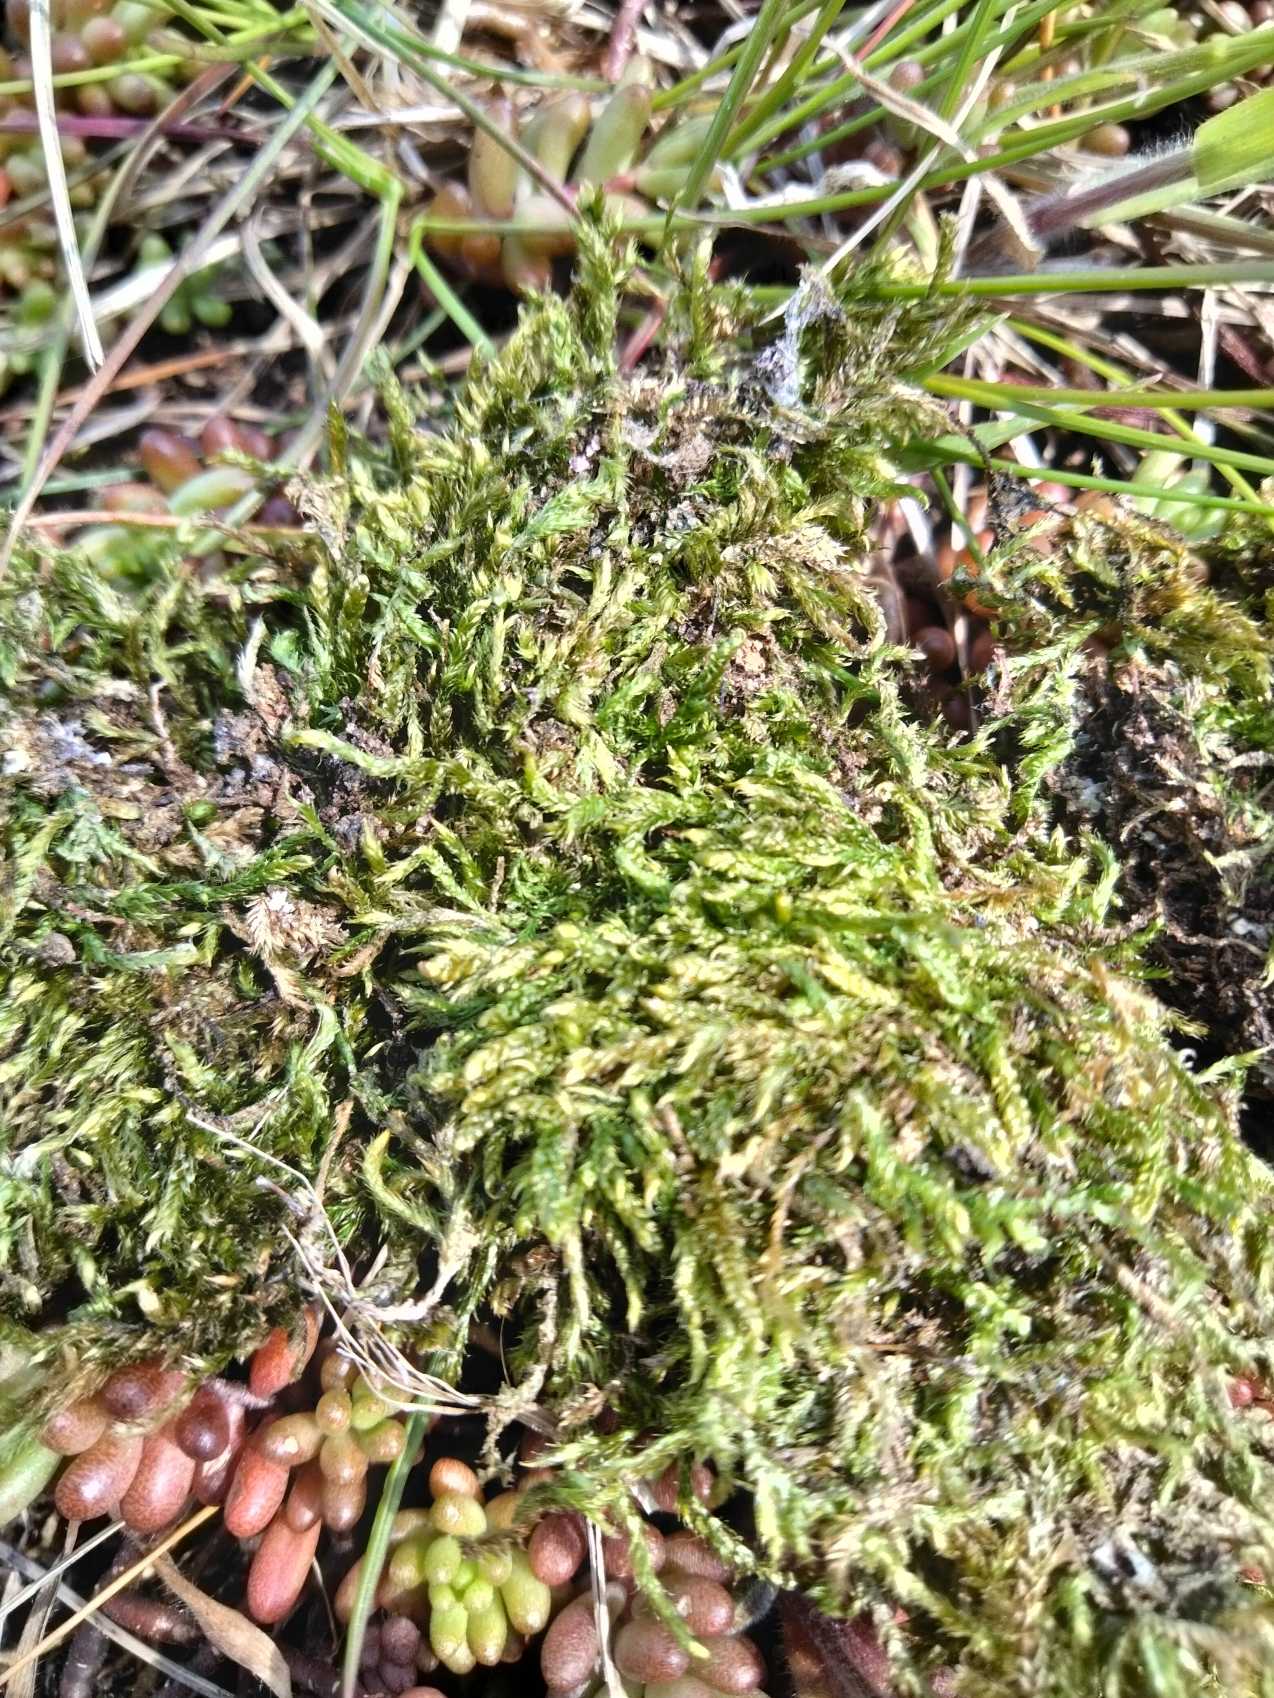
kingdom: Plantae
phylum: Bryophyta
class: Bryopsida
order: Hypnales
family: Hypnaceae
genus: Hypnum
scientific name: Hypnum cupressiforme
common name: Almindelig cypresmos
